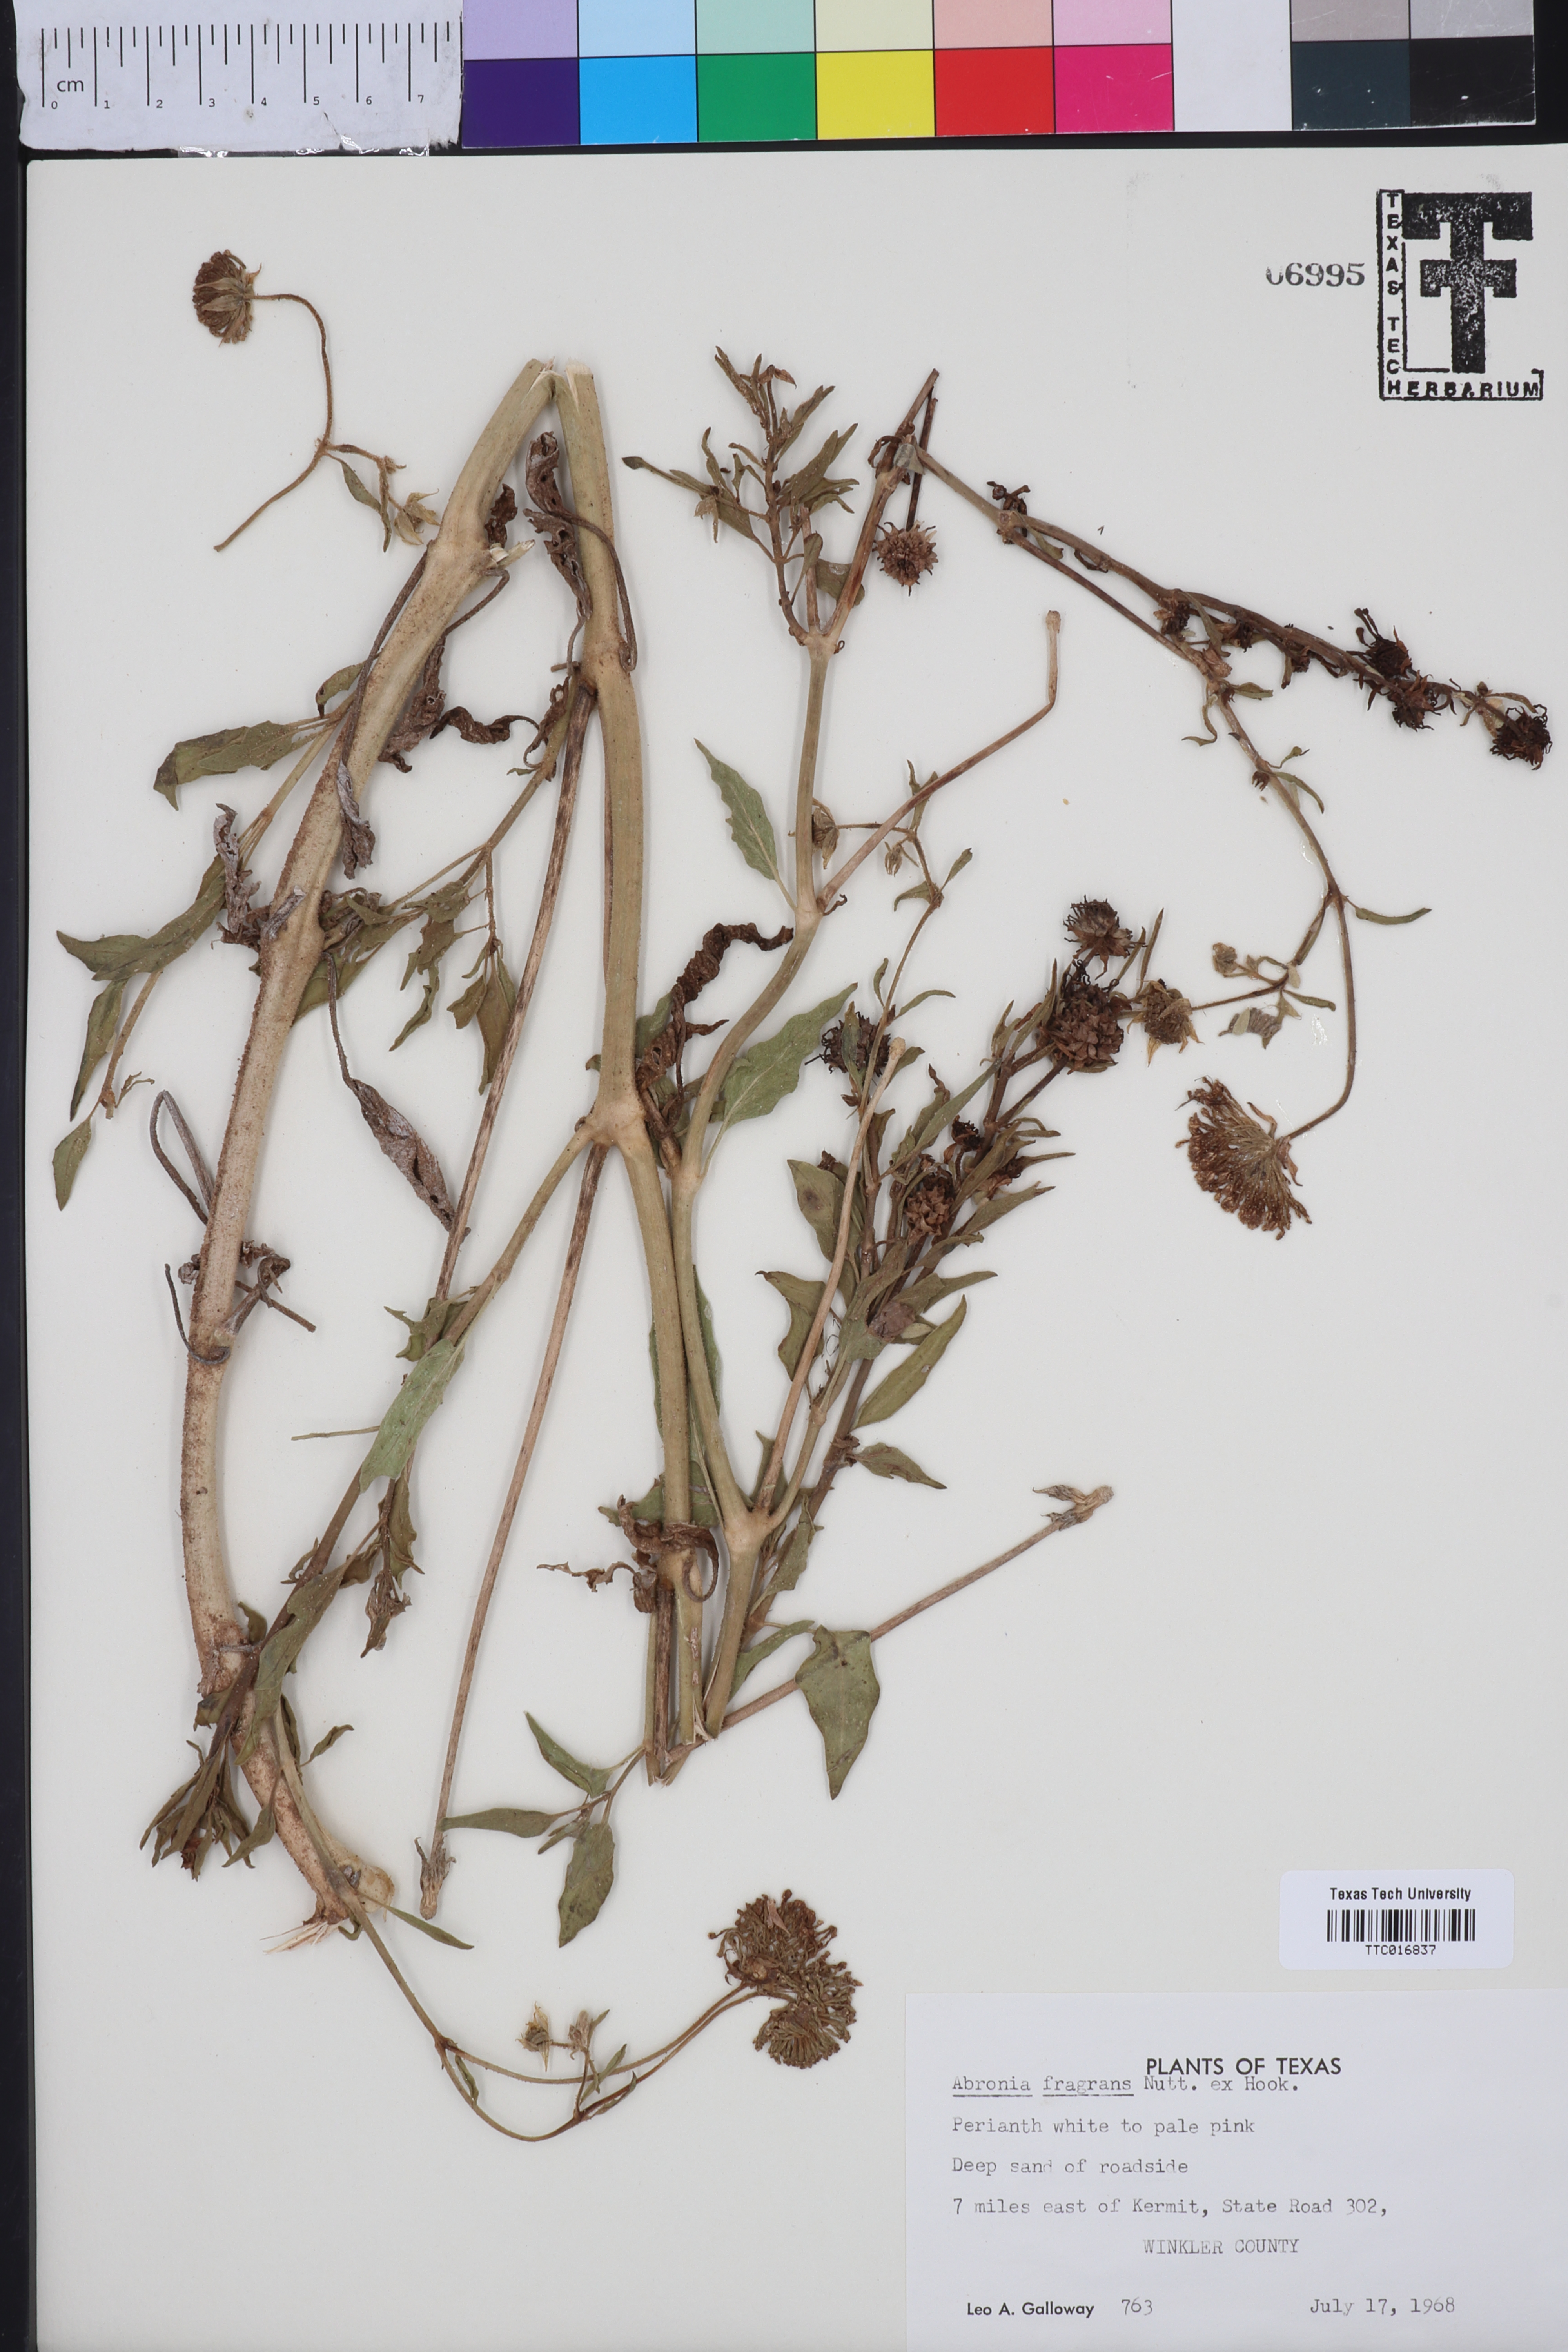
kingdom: Plantae
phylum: Tracheophyta
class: Magnoliopsida
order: Caryophyllales
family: Nyctaginaceae
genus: Abronia
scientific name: Abronia fragrans
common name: Fragrant sand-verbena
